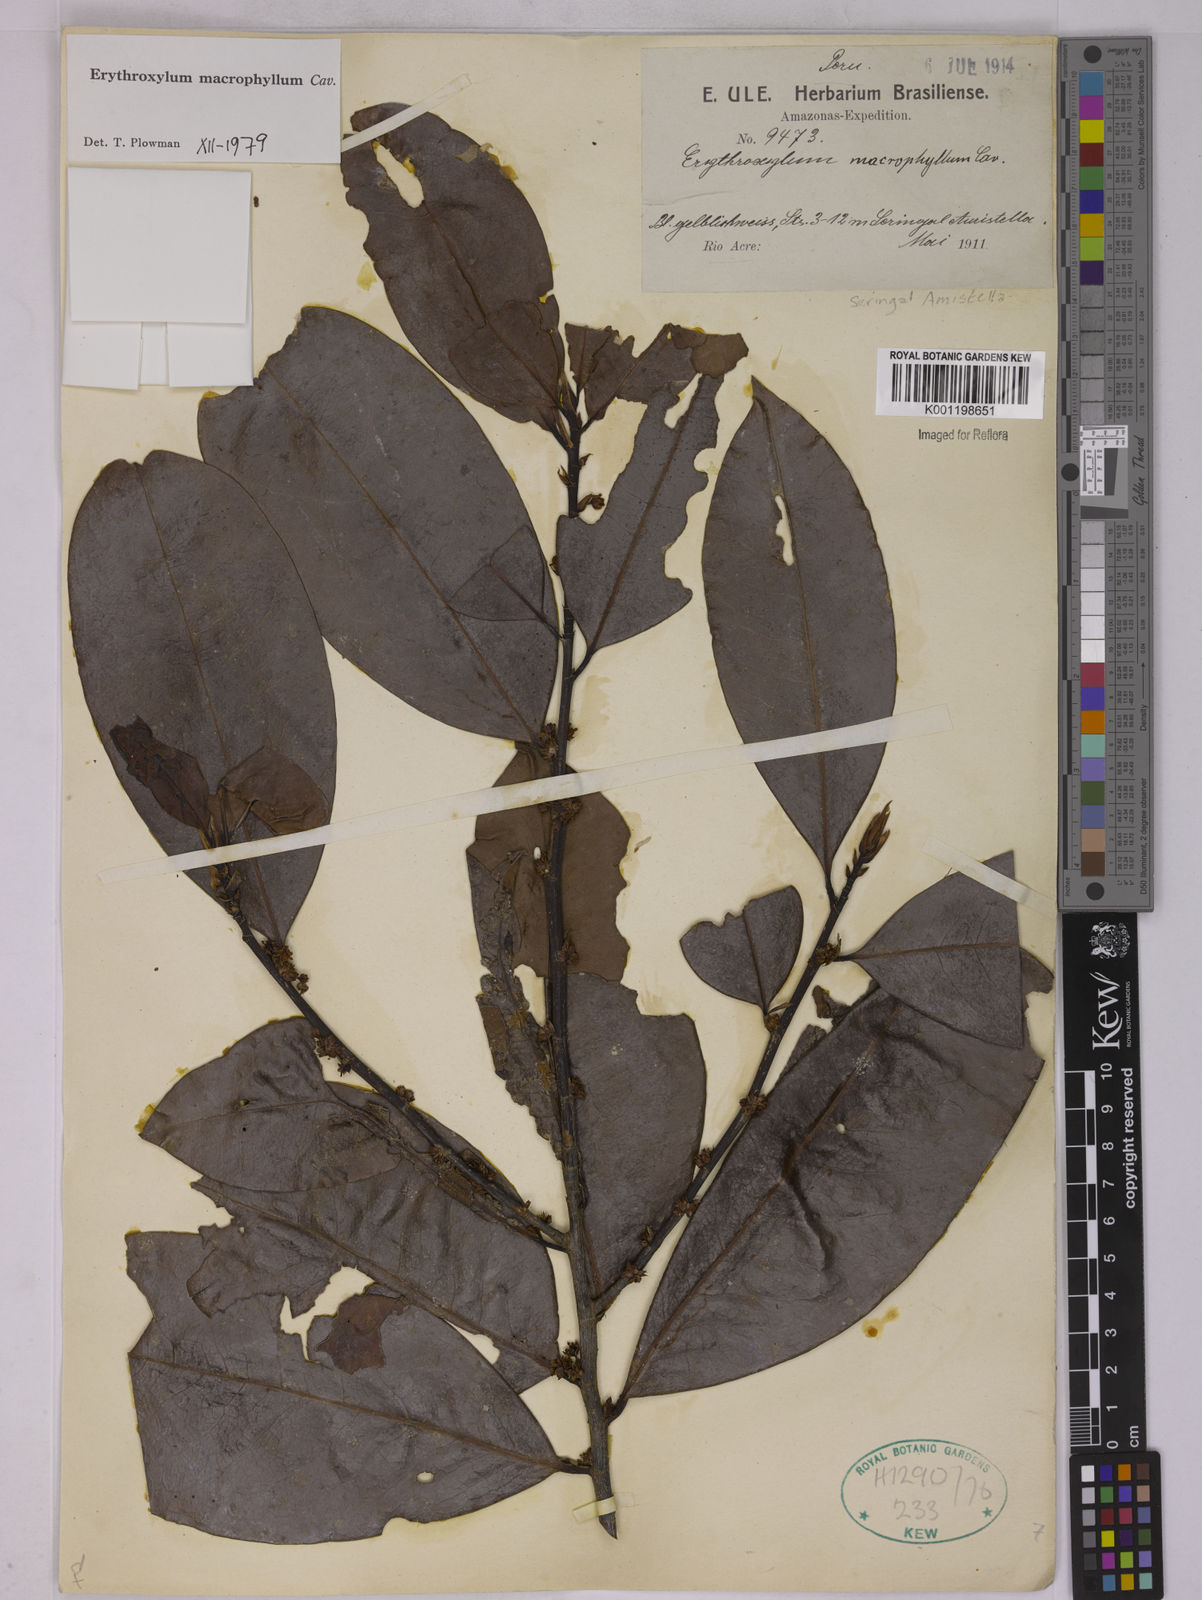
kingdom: Plantae
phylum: Tracheophyta
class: Magnoliopsida
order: Malpighiales
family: Erythroxylaceae
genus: Erythroxylum
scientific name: Erythroxylum macrophyllum
